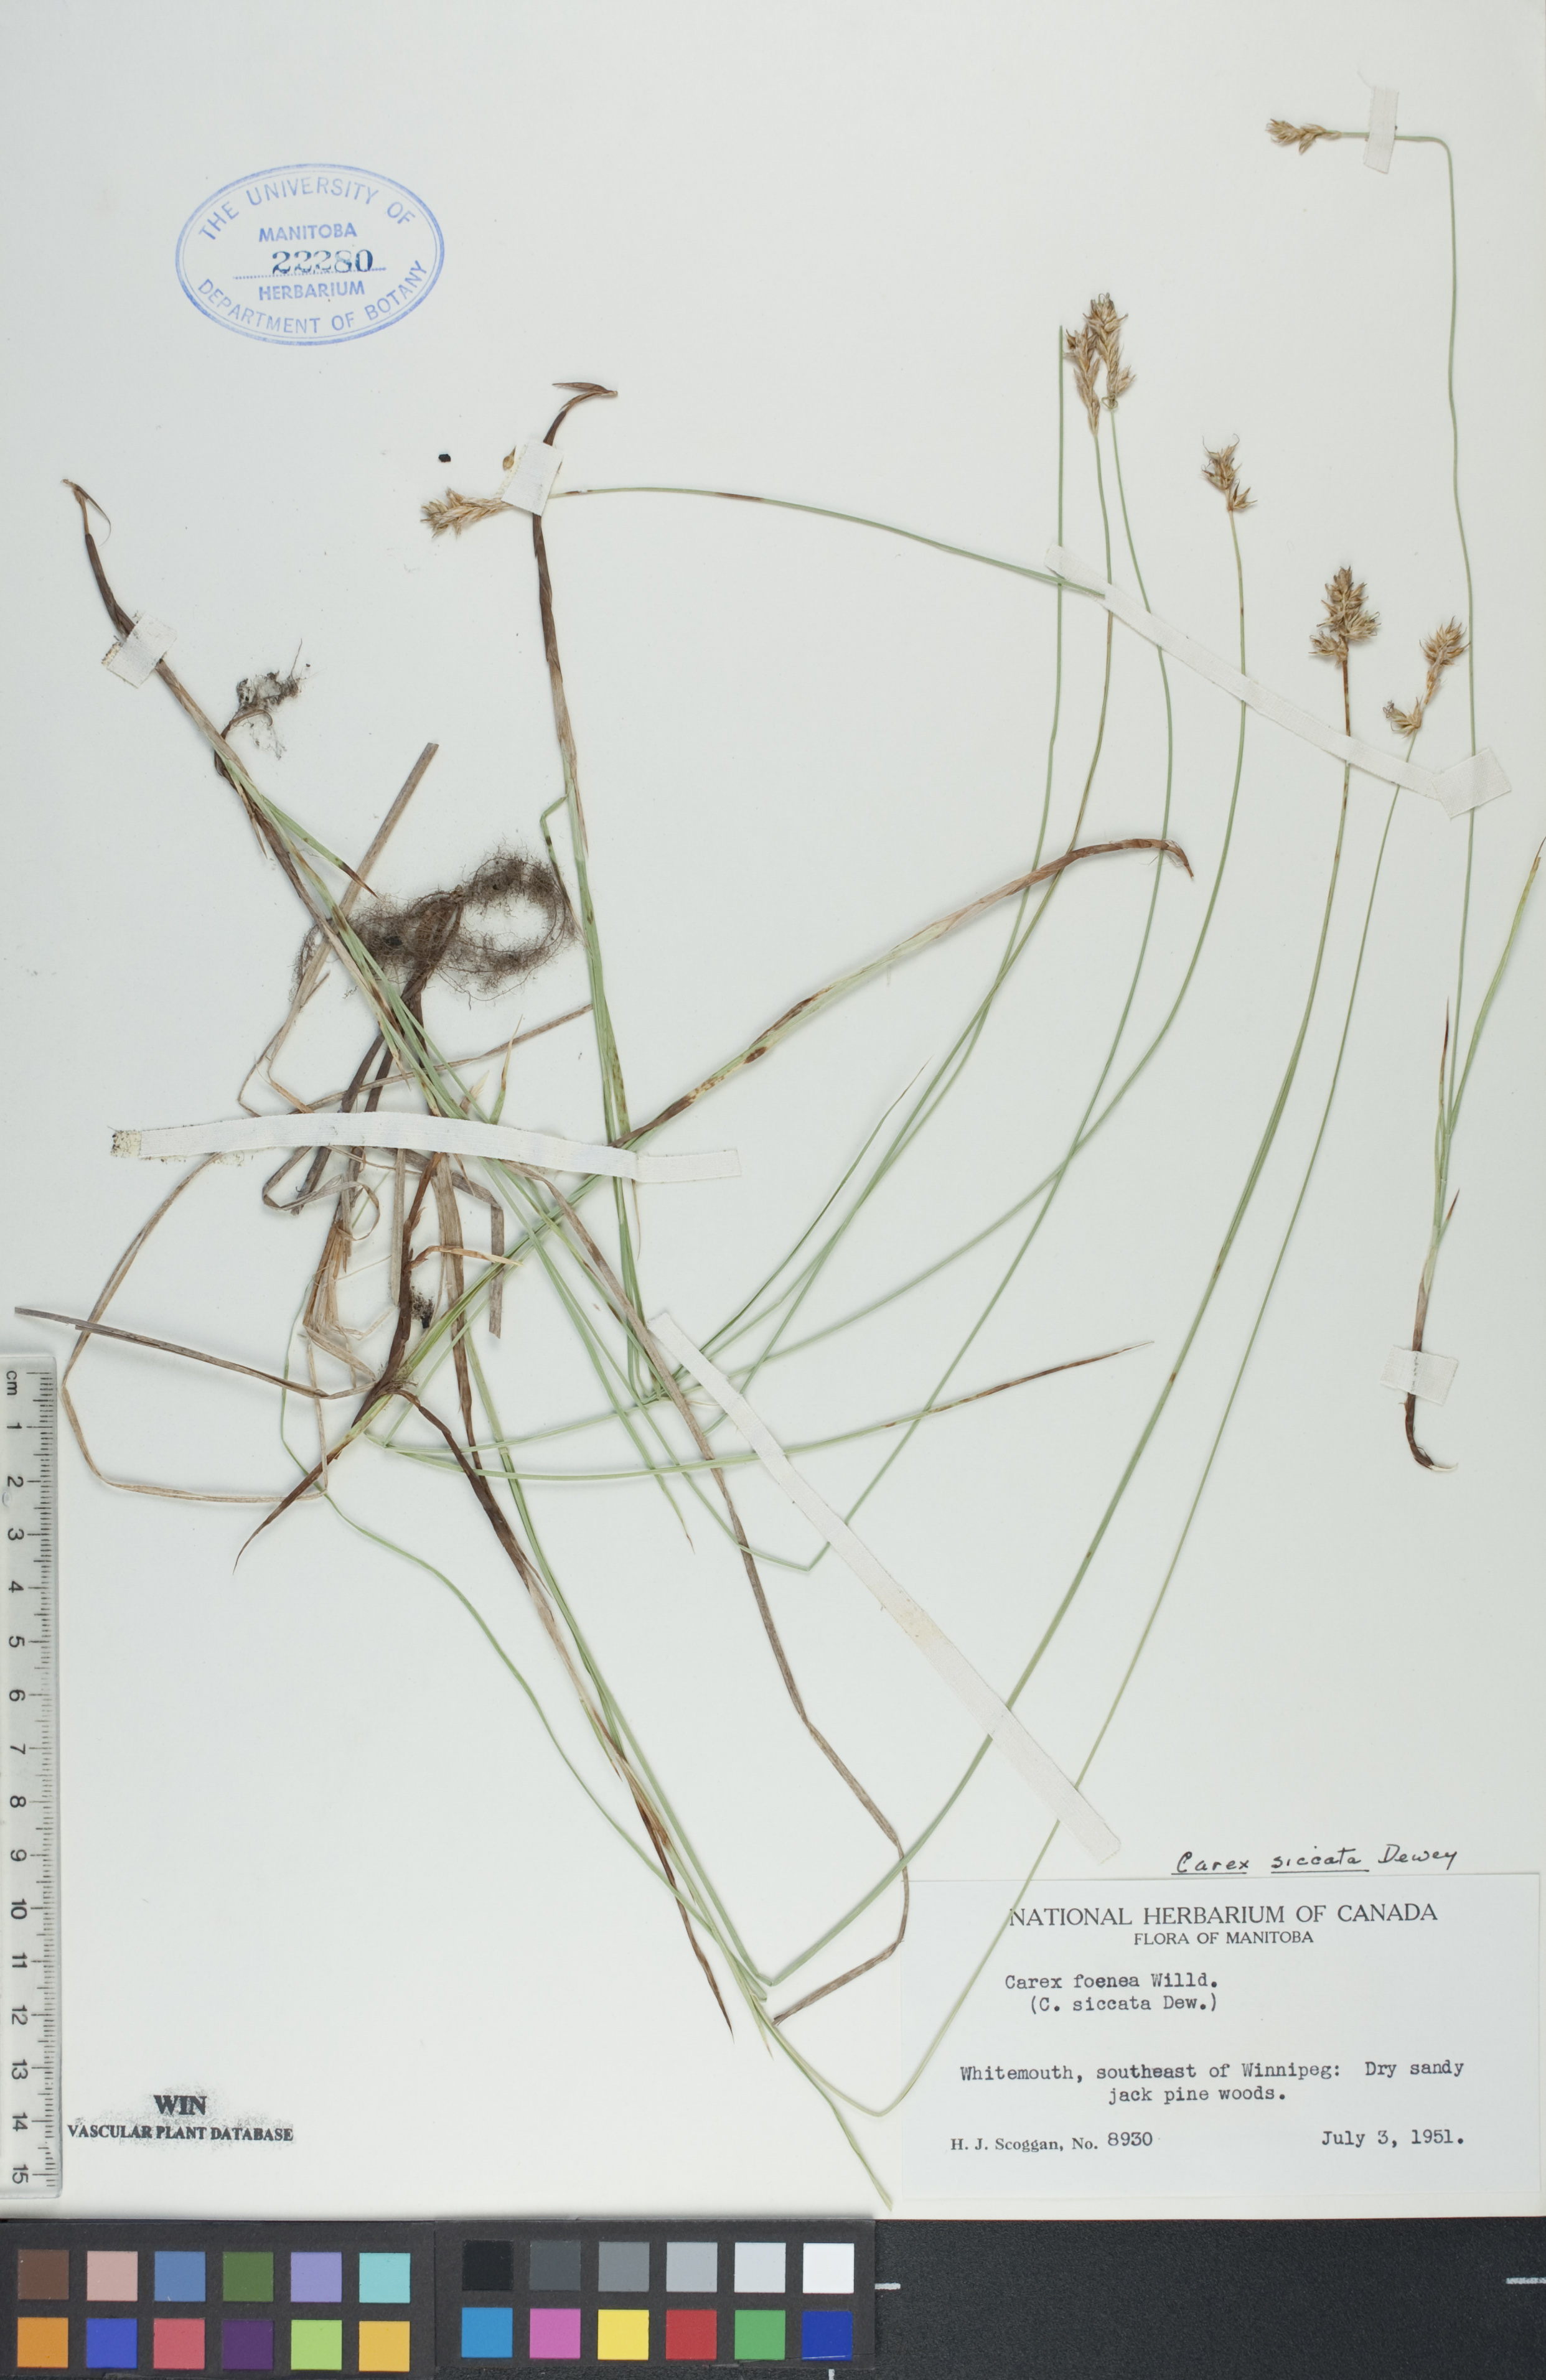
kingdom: Plantae
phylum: Tracheophyta
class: Liliopsida
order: Poales
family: Cyperaceae
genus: Carex
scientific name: Carex siccata
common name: Dry sedge
